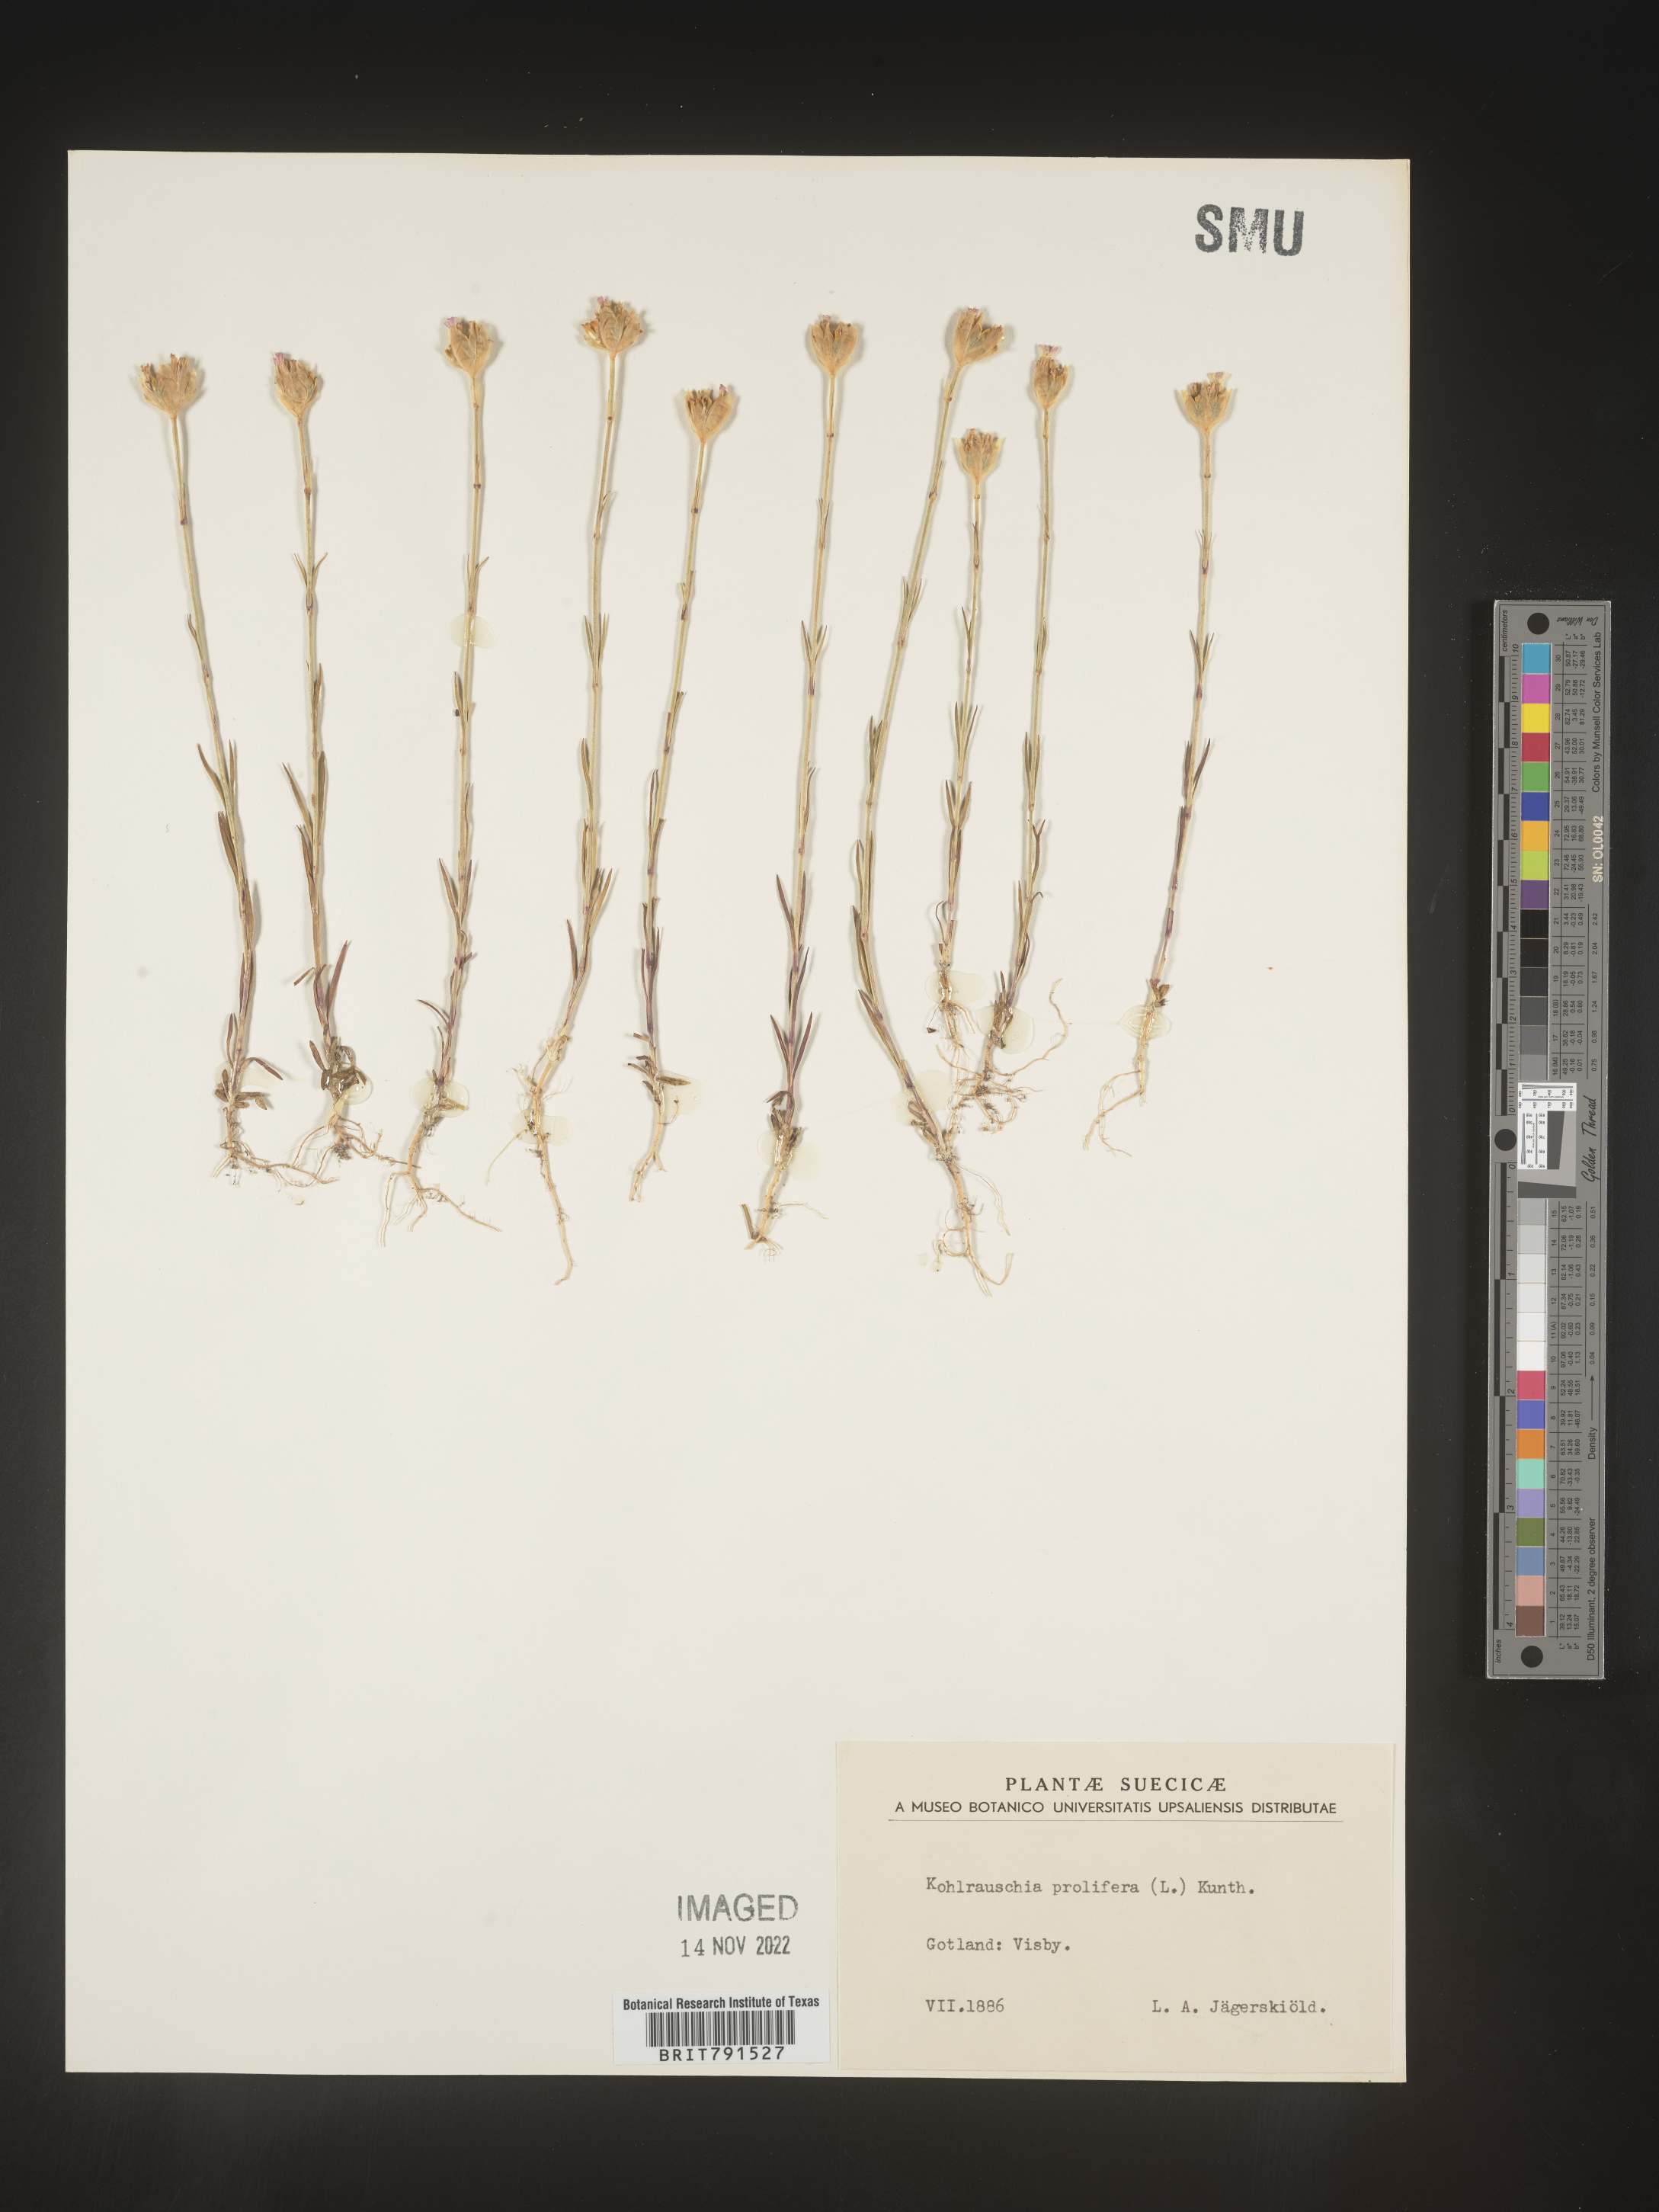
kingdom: Plantae
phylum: Tracheophyta
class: Magnoliopsida
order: Caryophyllales
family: Caryophyllaceae
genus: Petrorhagia
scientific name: Petrorhagia
